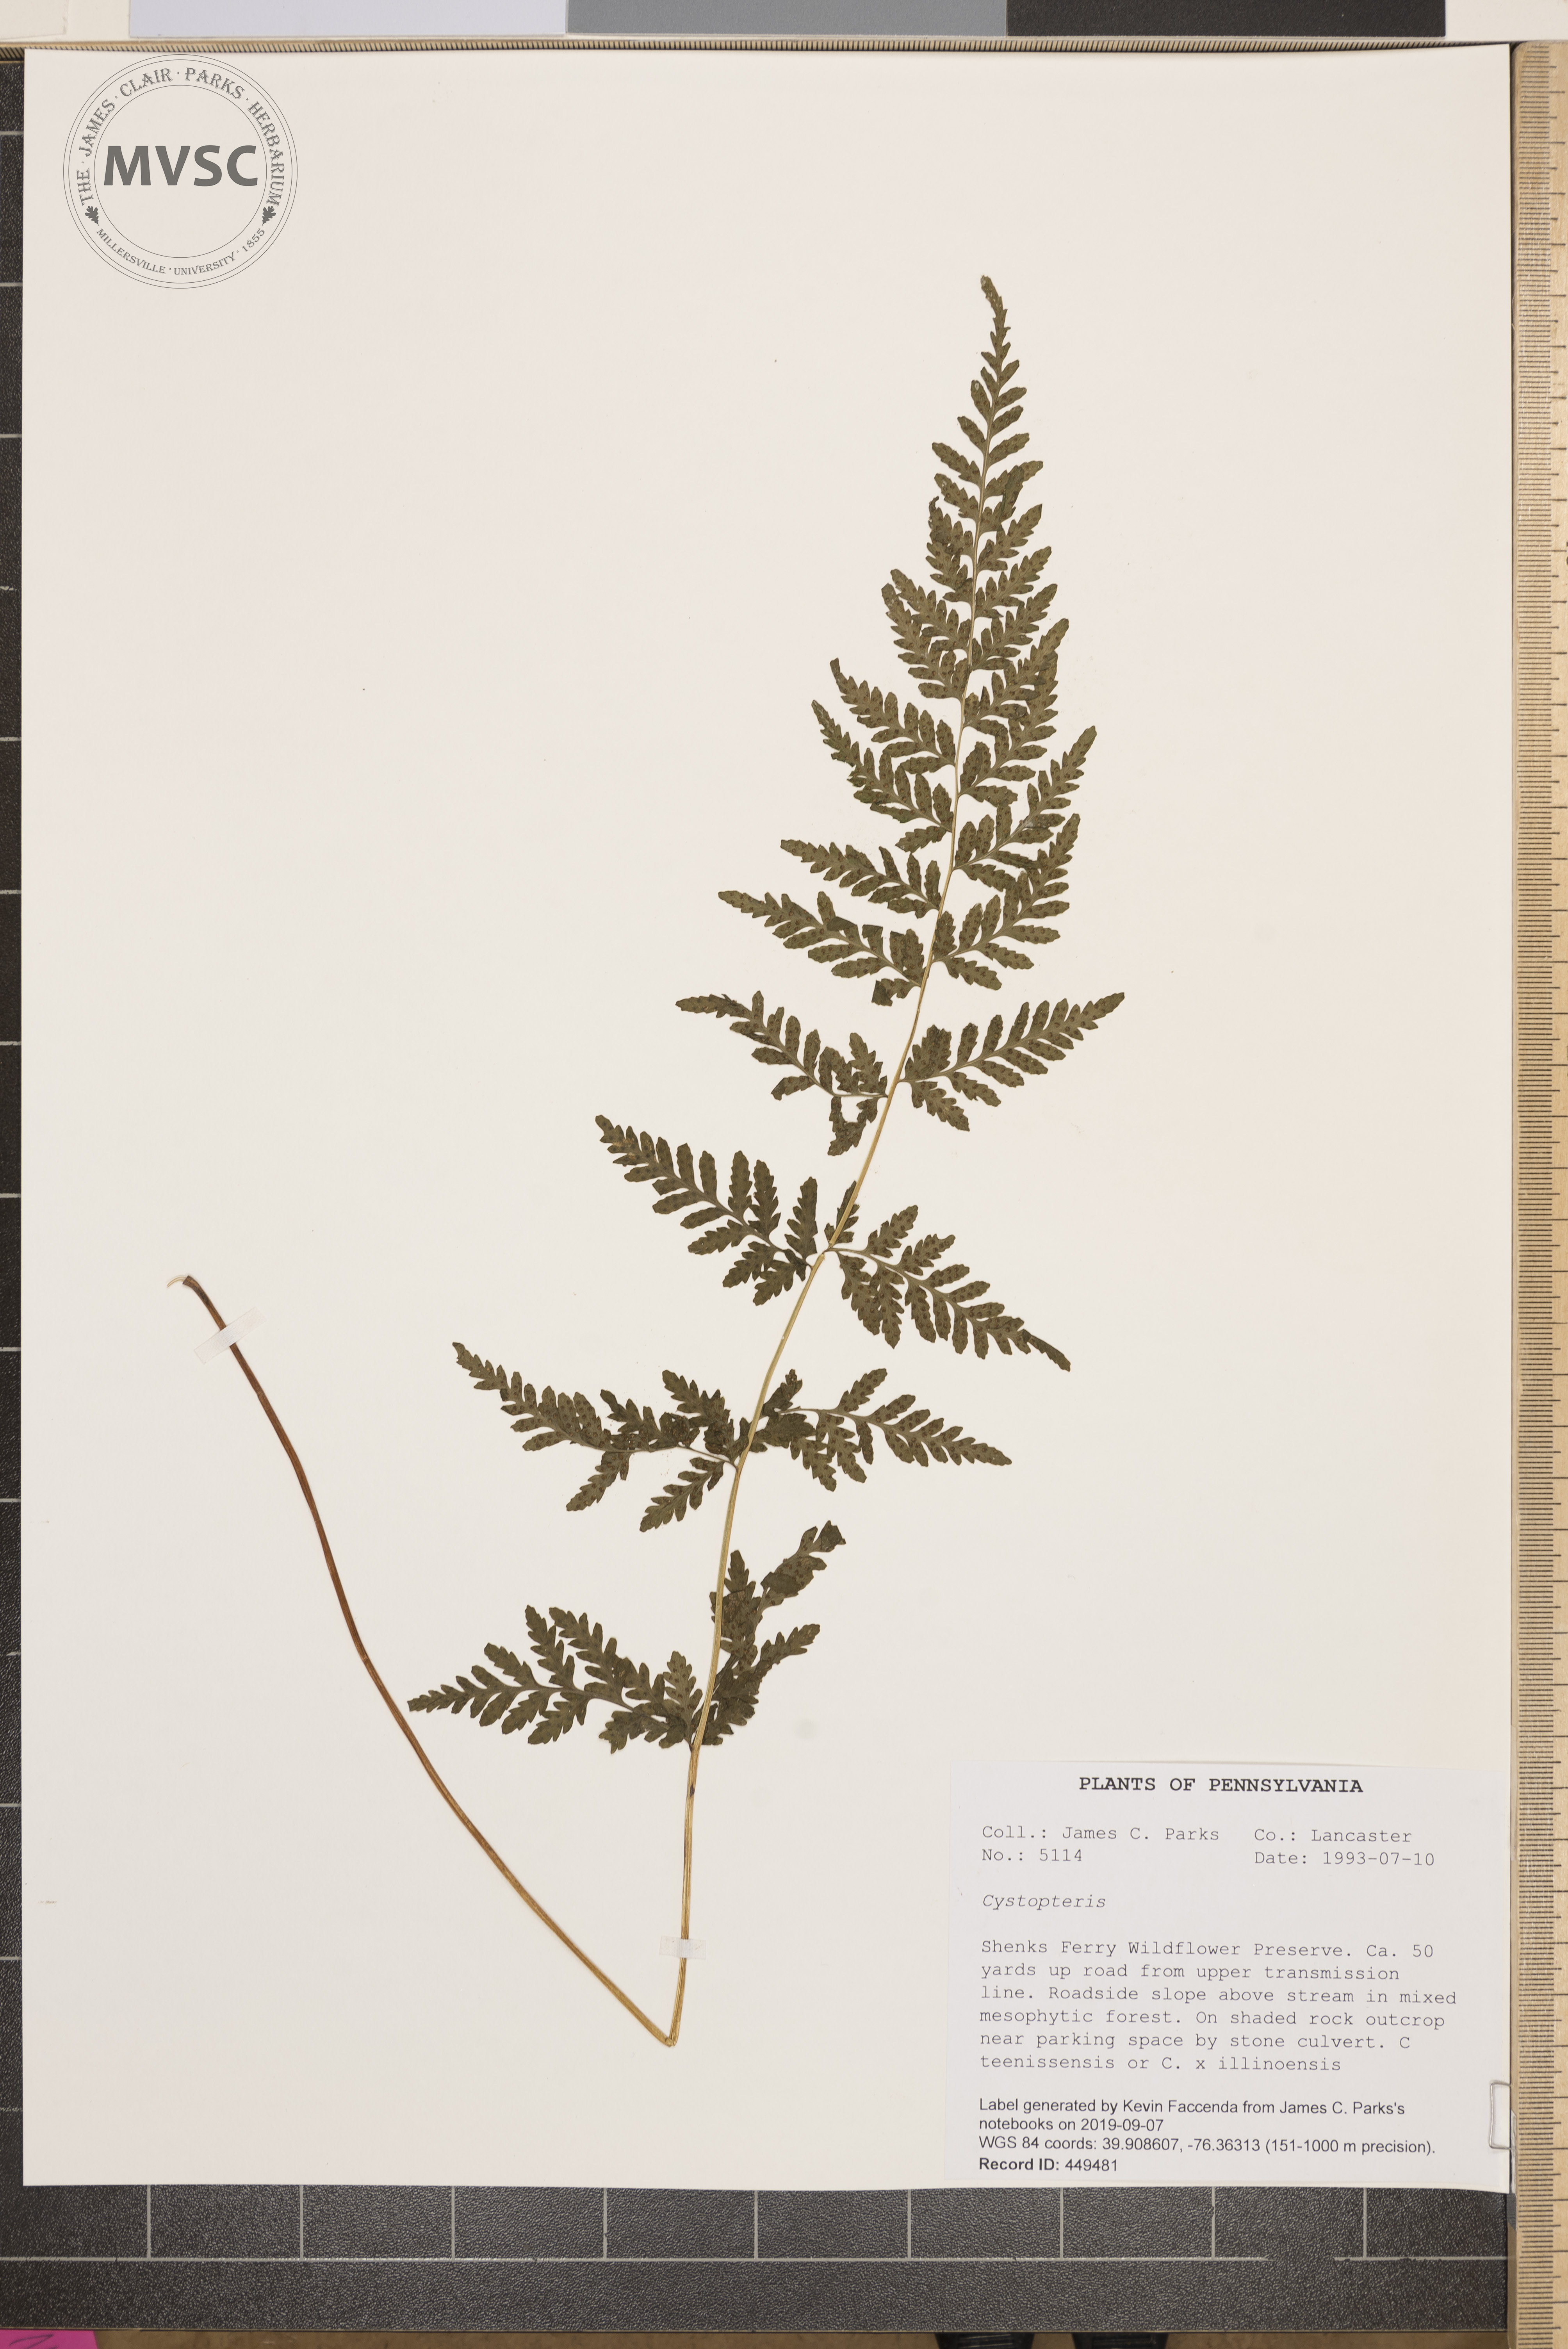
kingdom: Plantae
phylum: Tracheophyta
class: Polypodiopsida
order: Polypodiales
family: Cystopteridaceae
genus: Cystopteris
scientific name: Cystopteris
